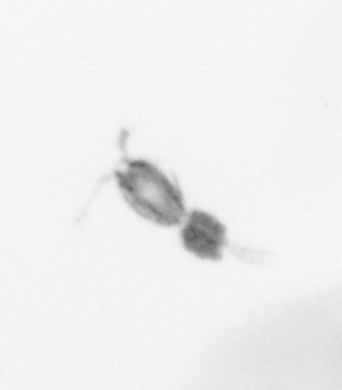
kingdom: Animalia
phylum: Arthropoda
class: Copepoda
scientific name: Copepoda
